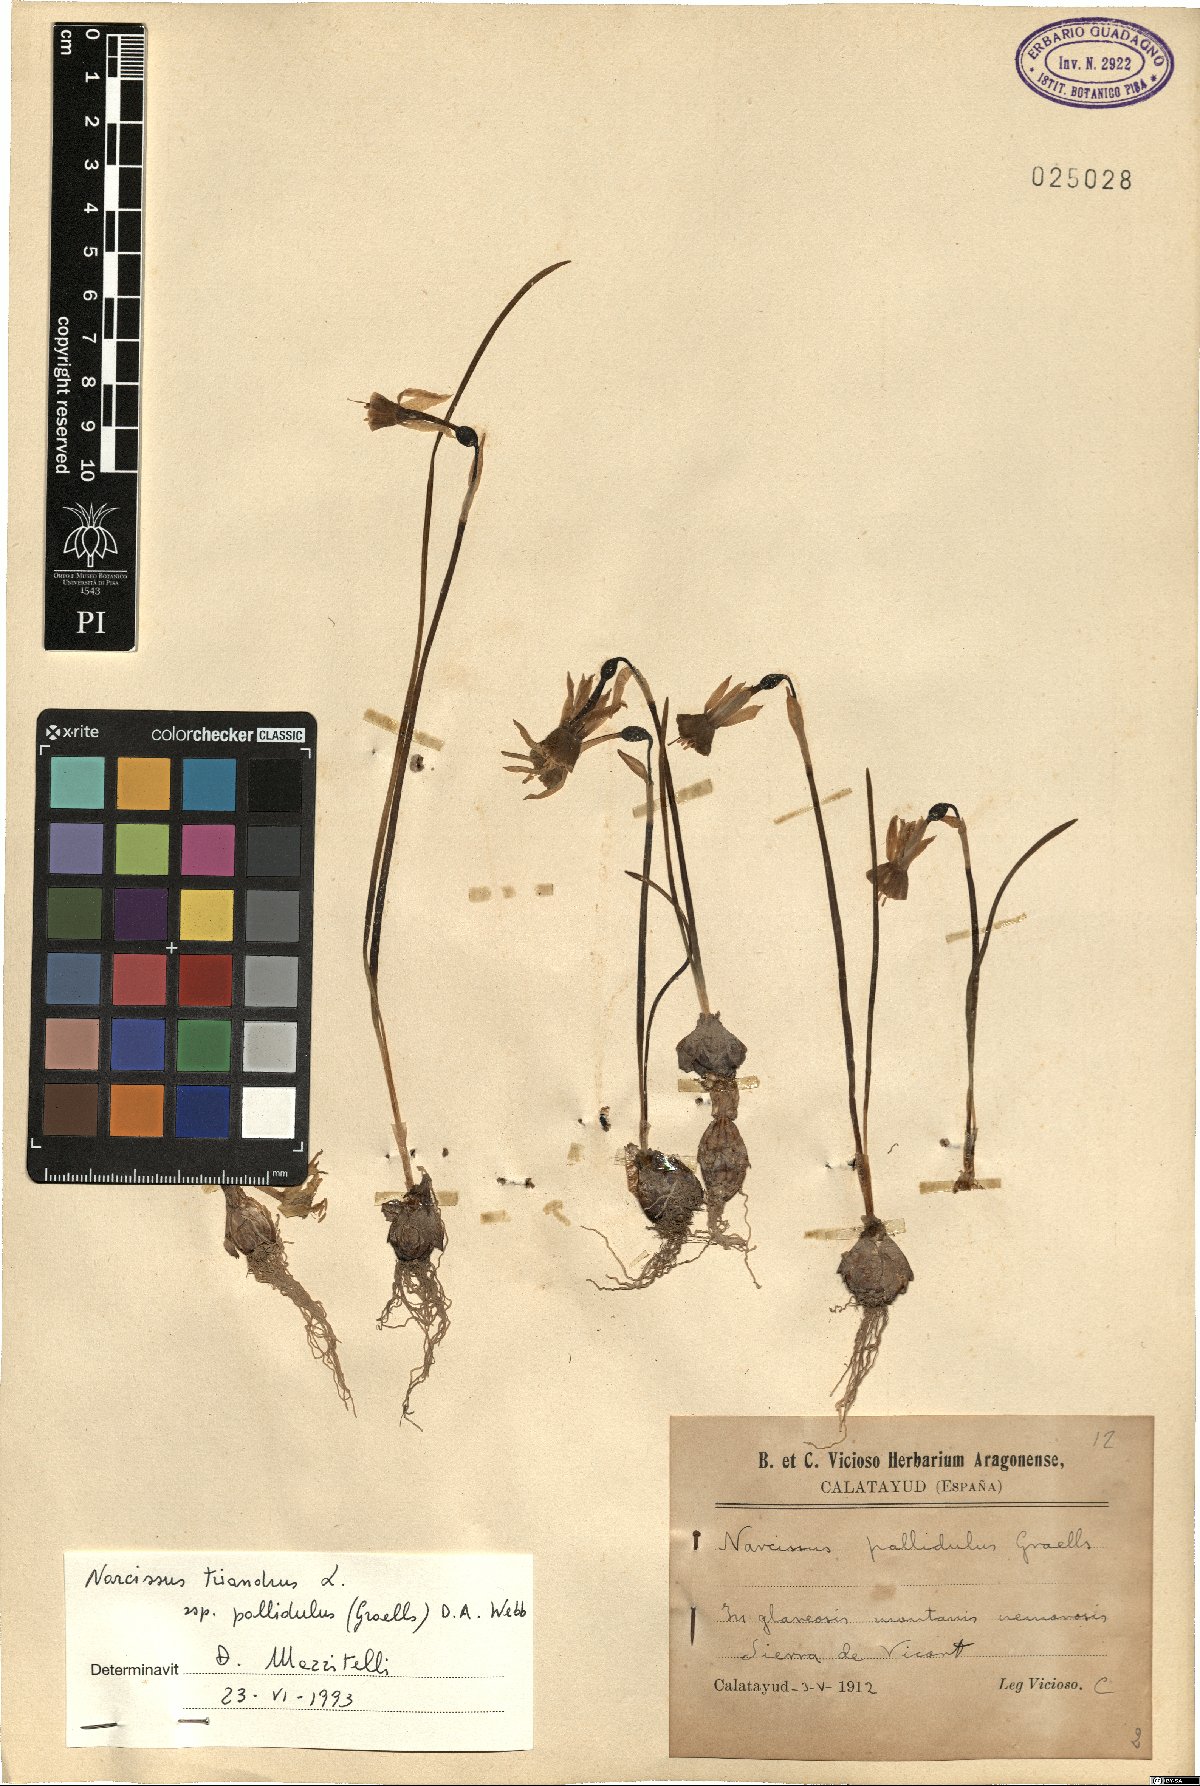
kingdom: Plantae
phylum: Tracheophyta
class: Liliopsida
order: Asparagales
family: Amaryllidaceae
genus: Narcissus
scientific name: Narcissus triandrus
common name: Angel's-tears
